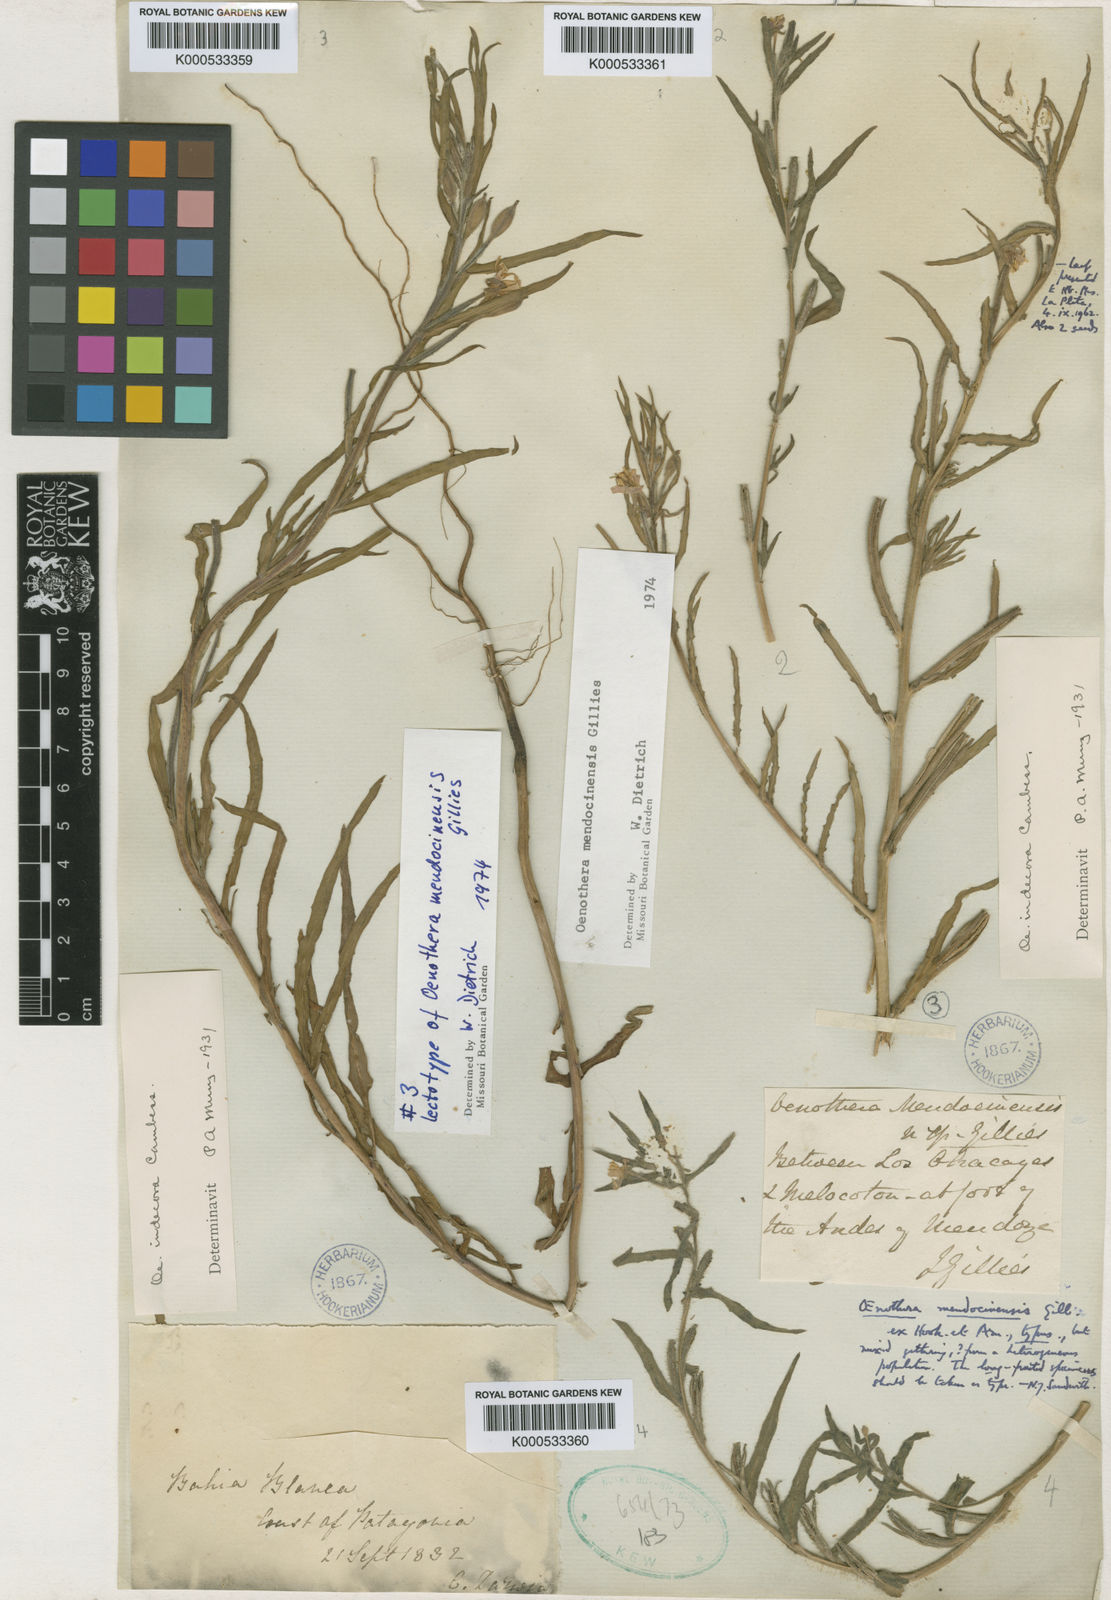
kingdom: Plantae
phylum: Tracheophyta
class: Magnoliopsida
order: Myrtales
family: Onagraceae
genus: Oenothera
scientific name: Oenothera mendocinensis
